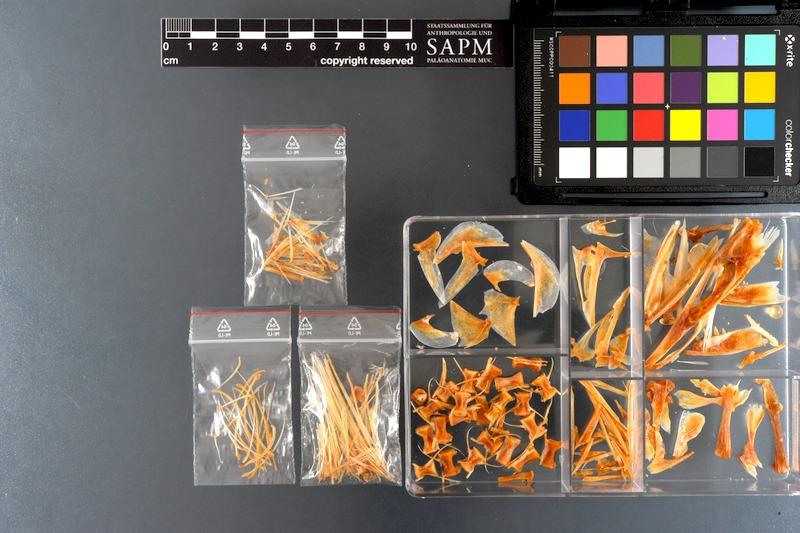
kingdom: Animalia
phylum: Chordata
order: Perciformes
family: Sphyraenidae
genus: Sphyraena
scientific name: Sphyraena jello
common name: Pickhandle barracuda
